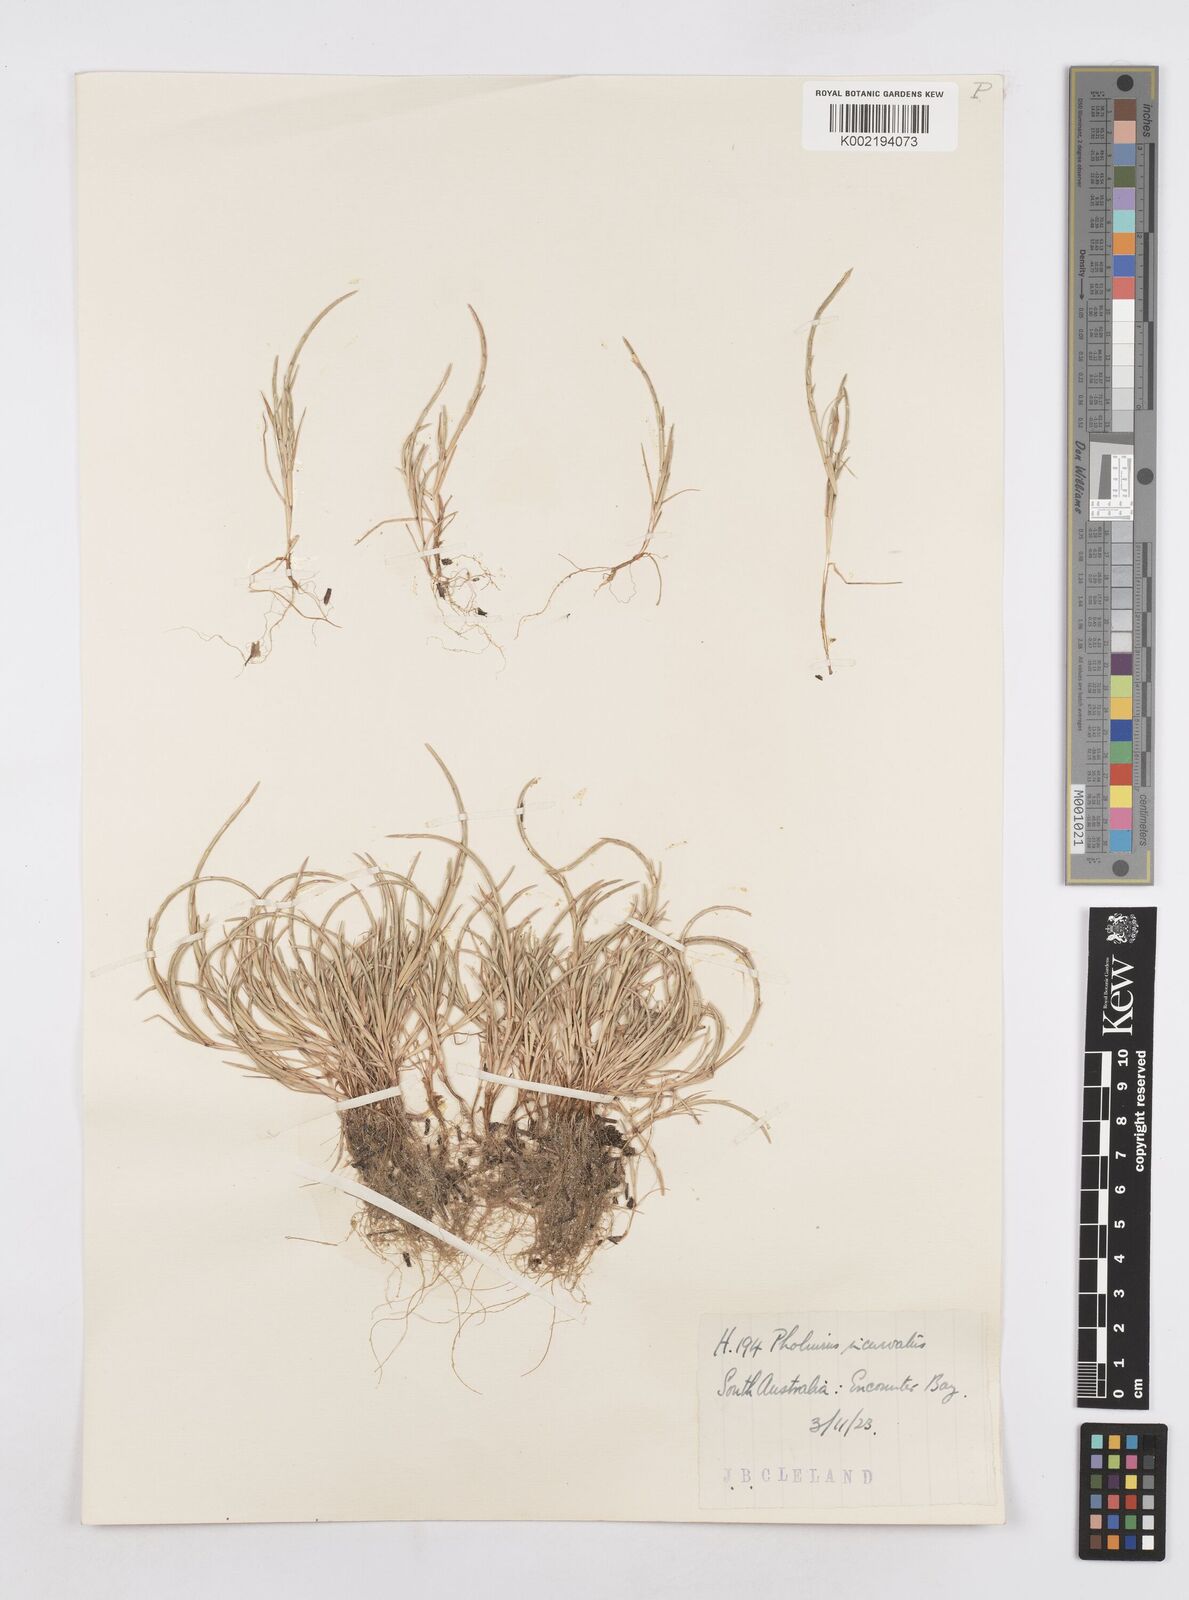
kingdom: Plantae
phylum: Tracheophyta
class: Liliopsida
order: Poales
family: Poaceae
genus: Parapholis
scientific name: Parapholis incurva
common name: Curved sicklegrass
